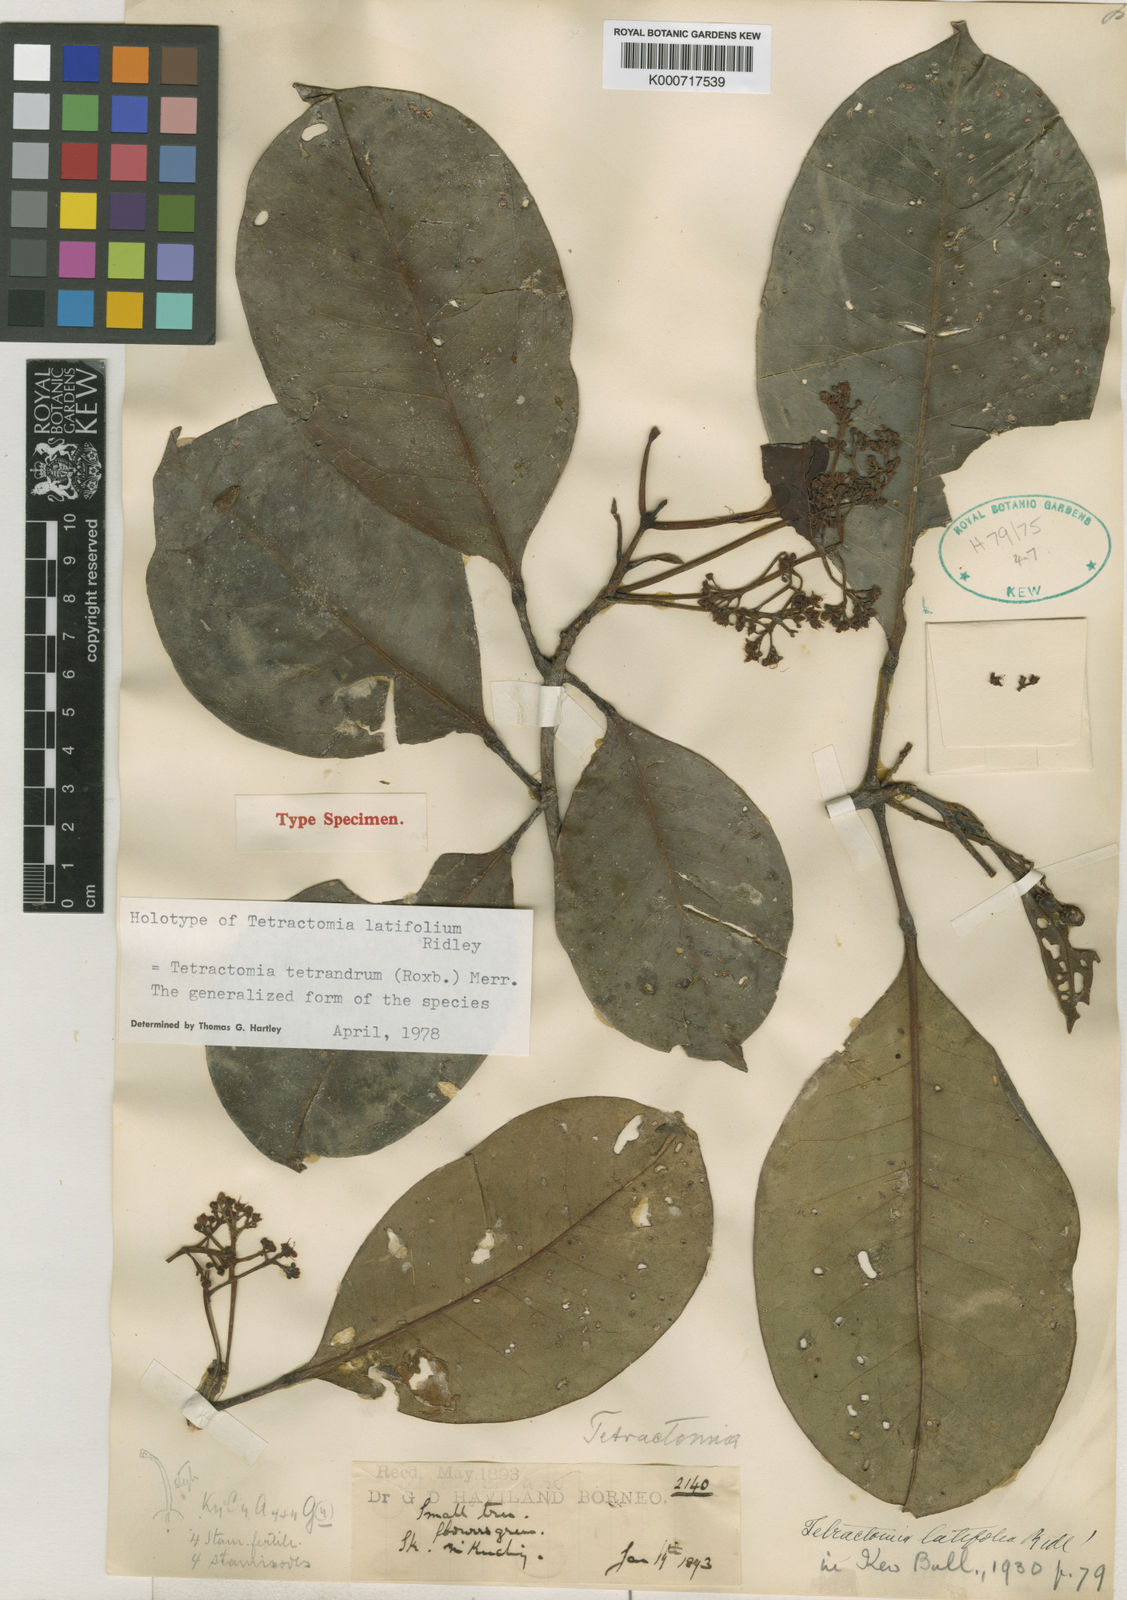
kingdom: Plantae
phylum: Tracheophyta
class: Magnoliopsida
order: Sapindales
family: Rutaceae
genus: Tetractomia
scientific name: Tetractomia tetrandra
